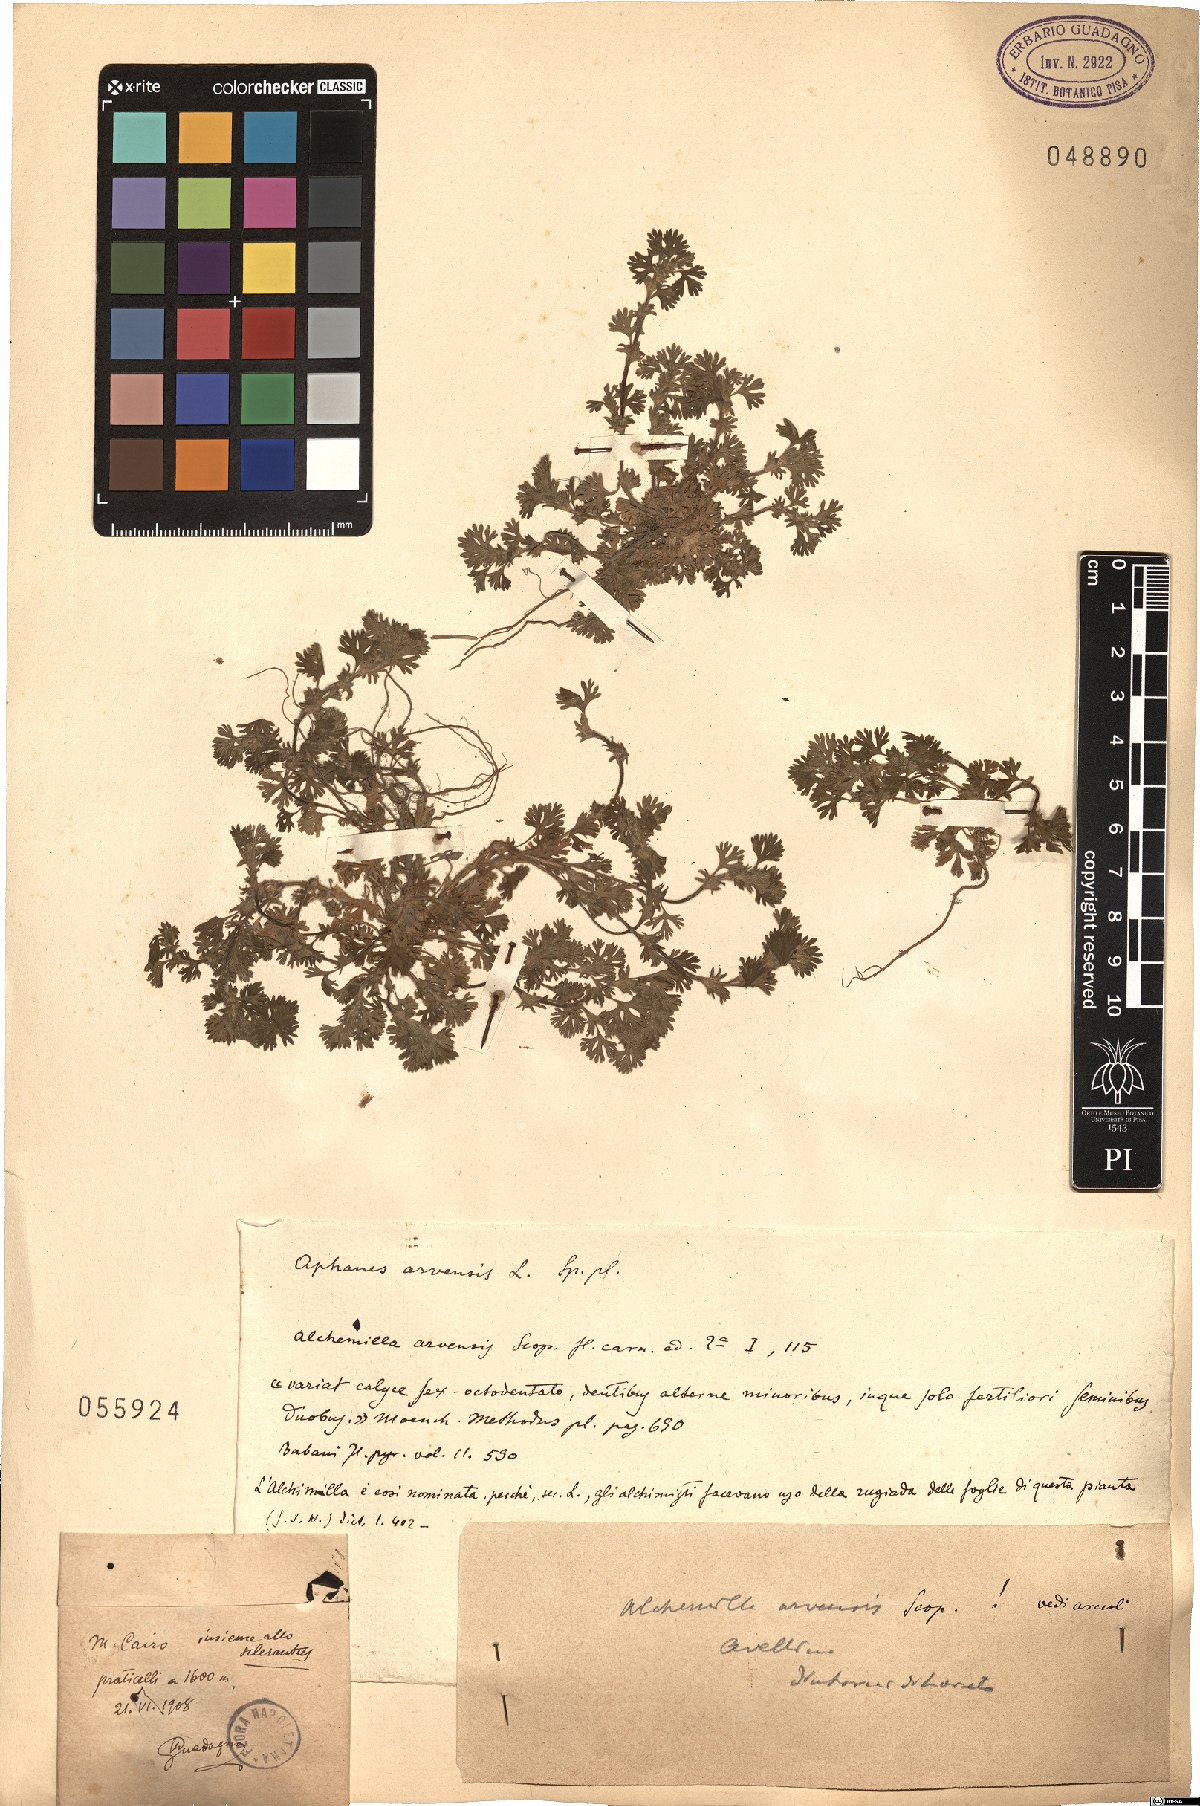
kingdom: Plantae
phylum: Tracheophyta
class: Magnoliopsida
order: Rosales
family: Rosaceae
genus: Aphanes
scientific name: Aphanes arvensis
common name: Parsley-piert
